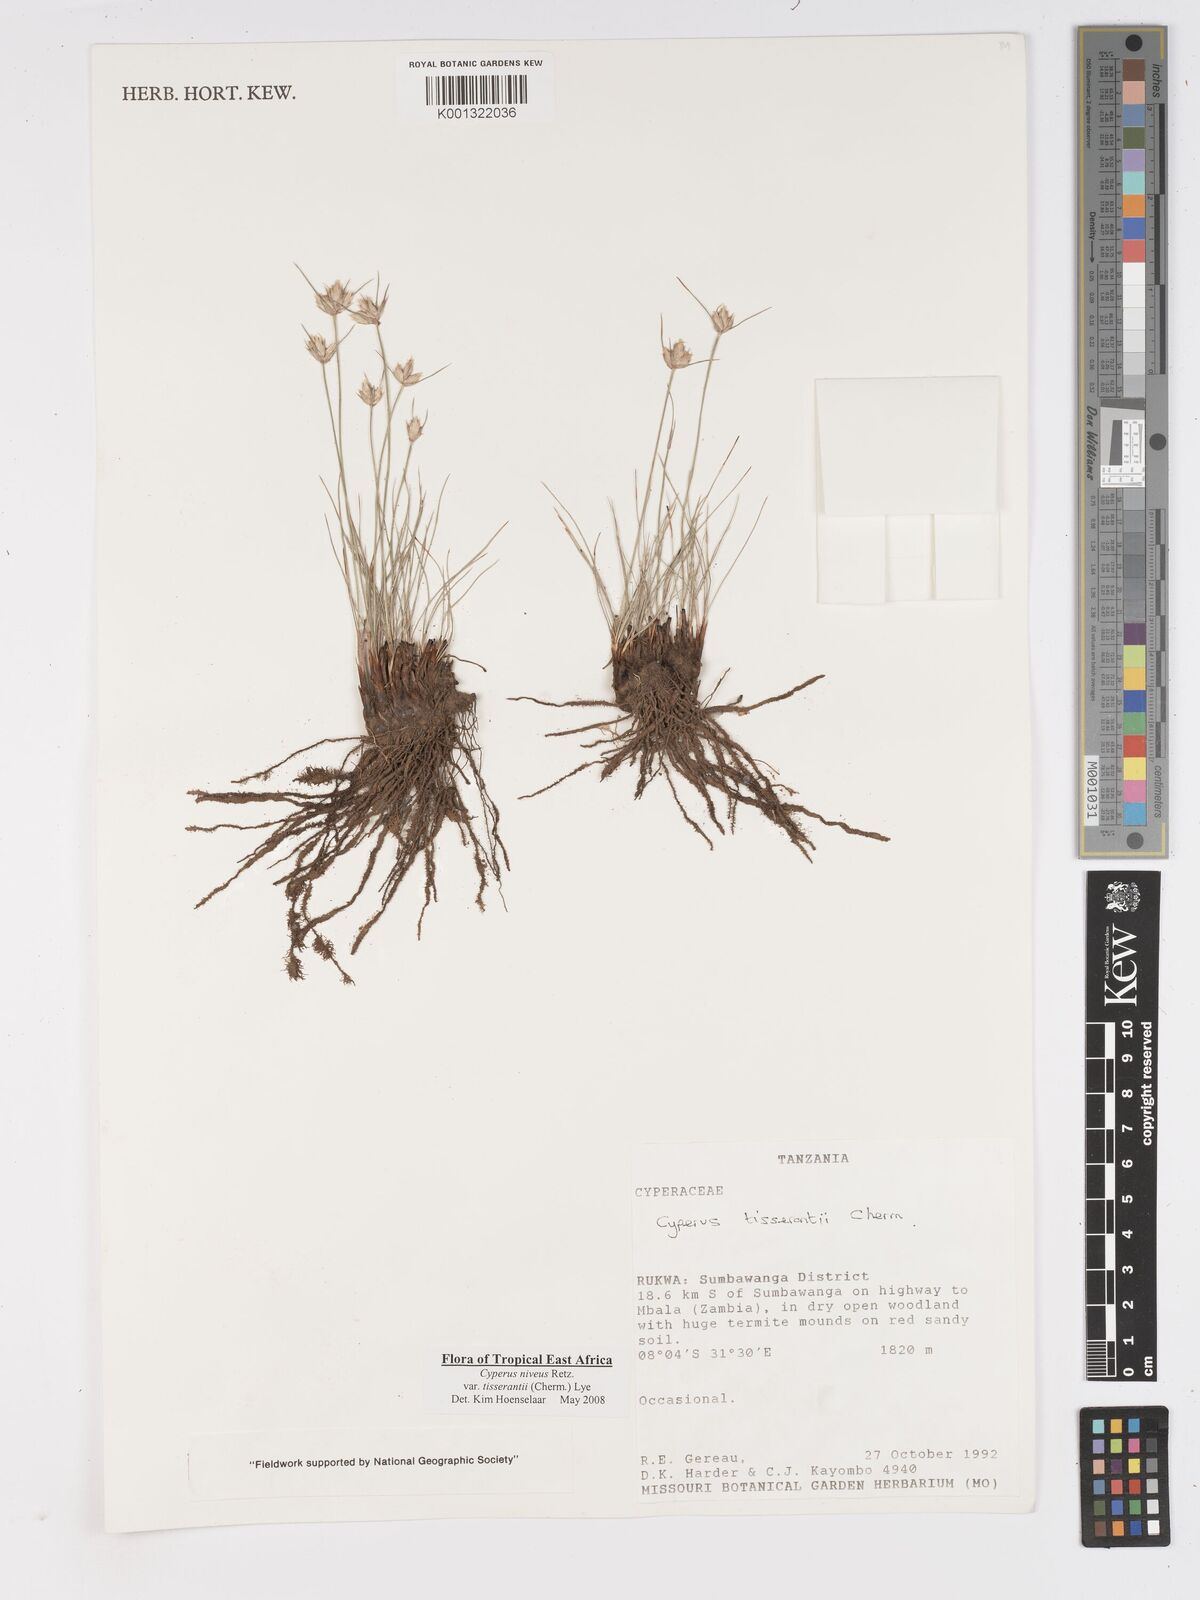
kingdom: Plantae
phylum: Tracheophyta
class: Liliopsida
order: Poales
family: Cyperaceae
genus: Cyperus
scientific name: Cyperus niveus
